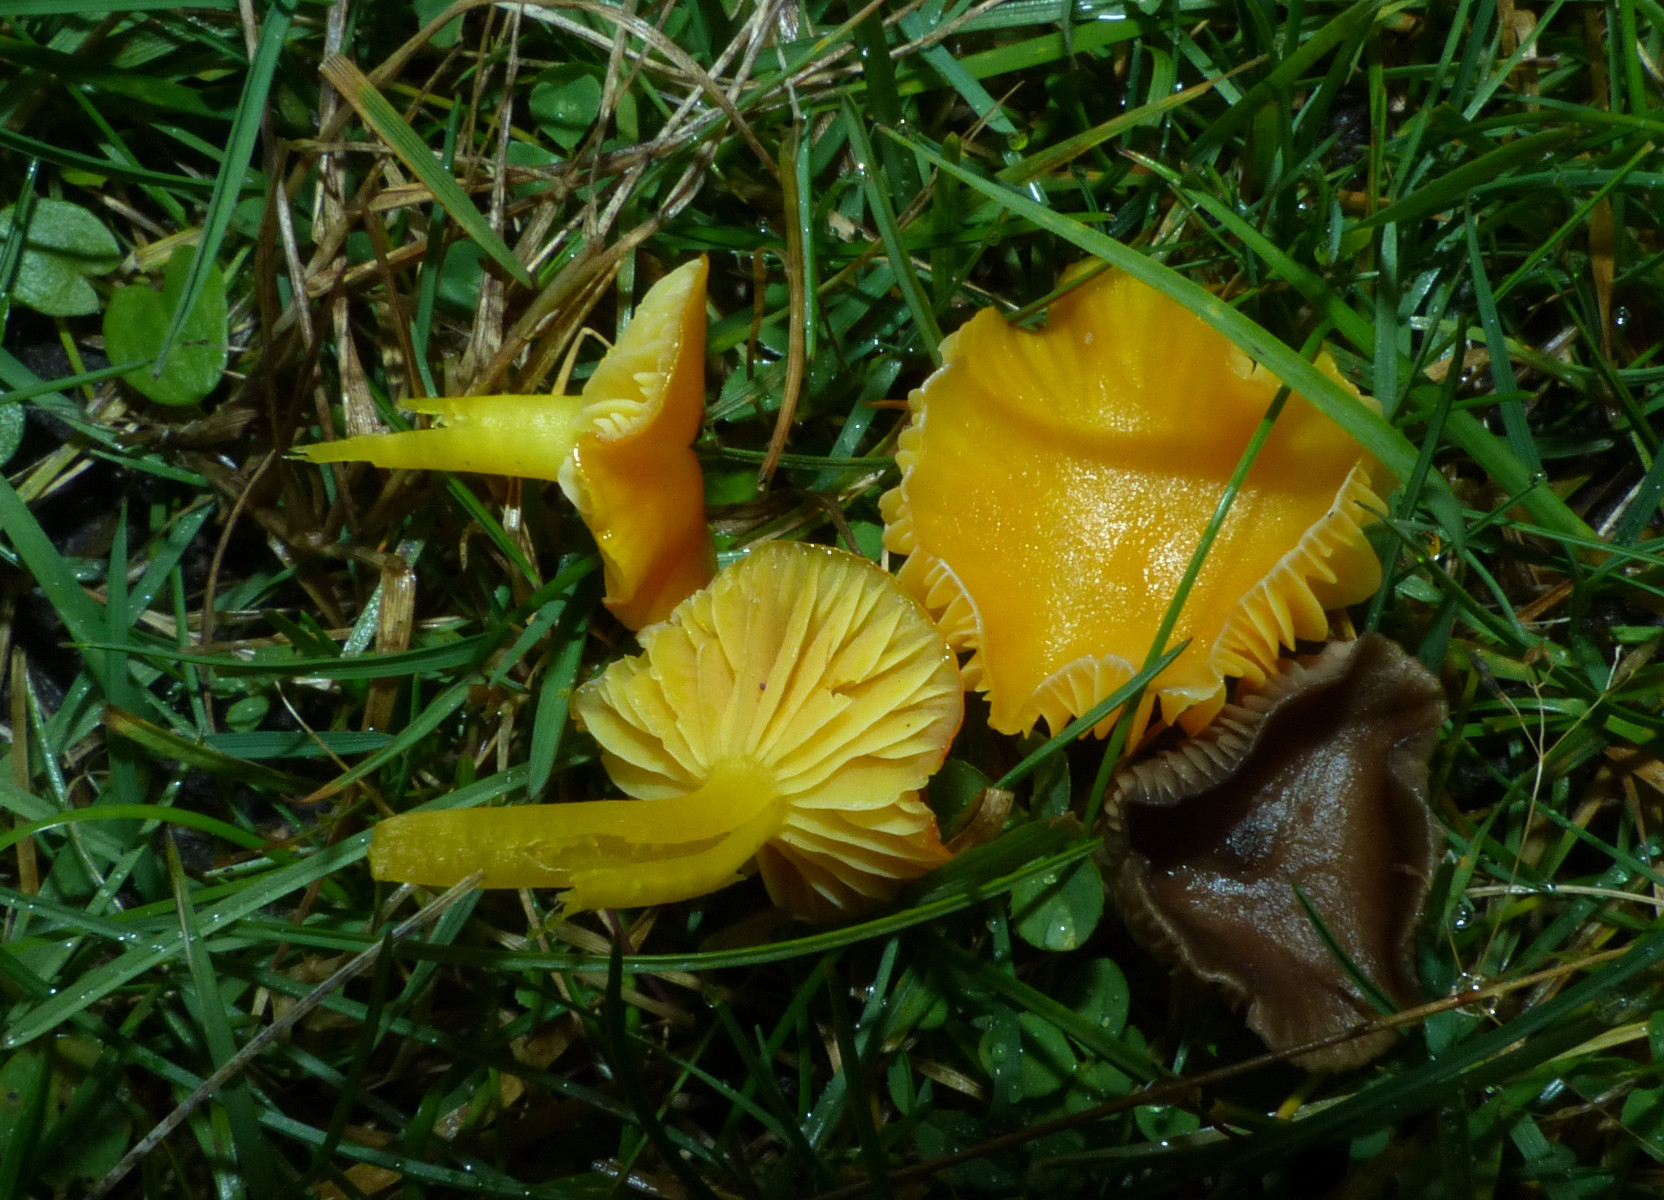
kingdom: Fungi
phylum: Basidiomycota
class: Agaricomycetes
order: Agaricales
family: Hygrophoraceae
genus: Hygrocybe
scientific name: Hygrocybe ceracea
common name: voksgul vokshat
